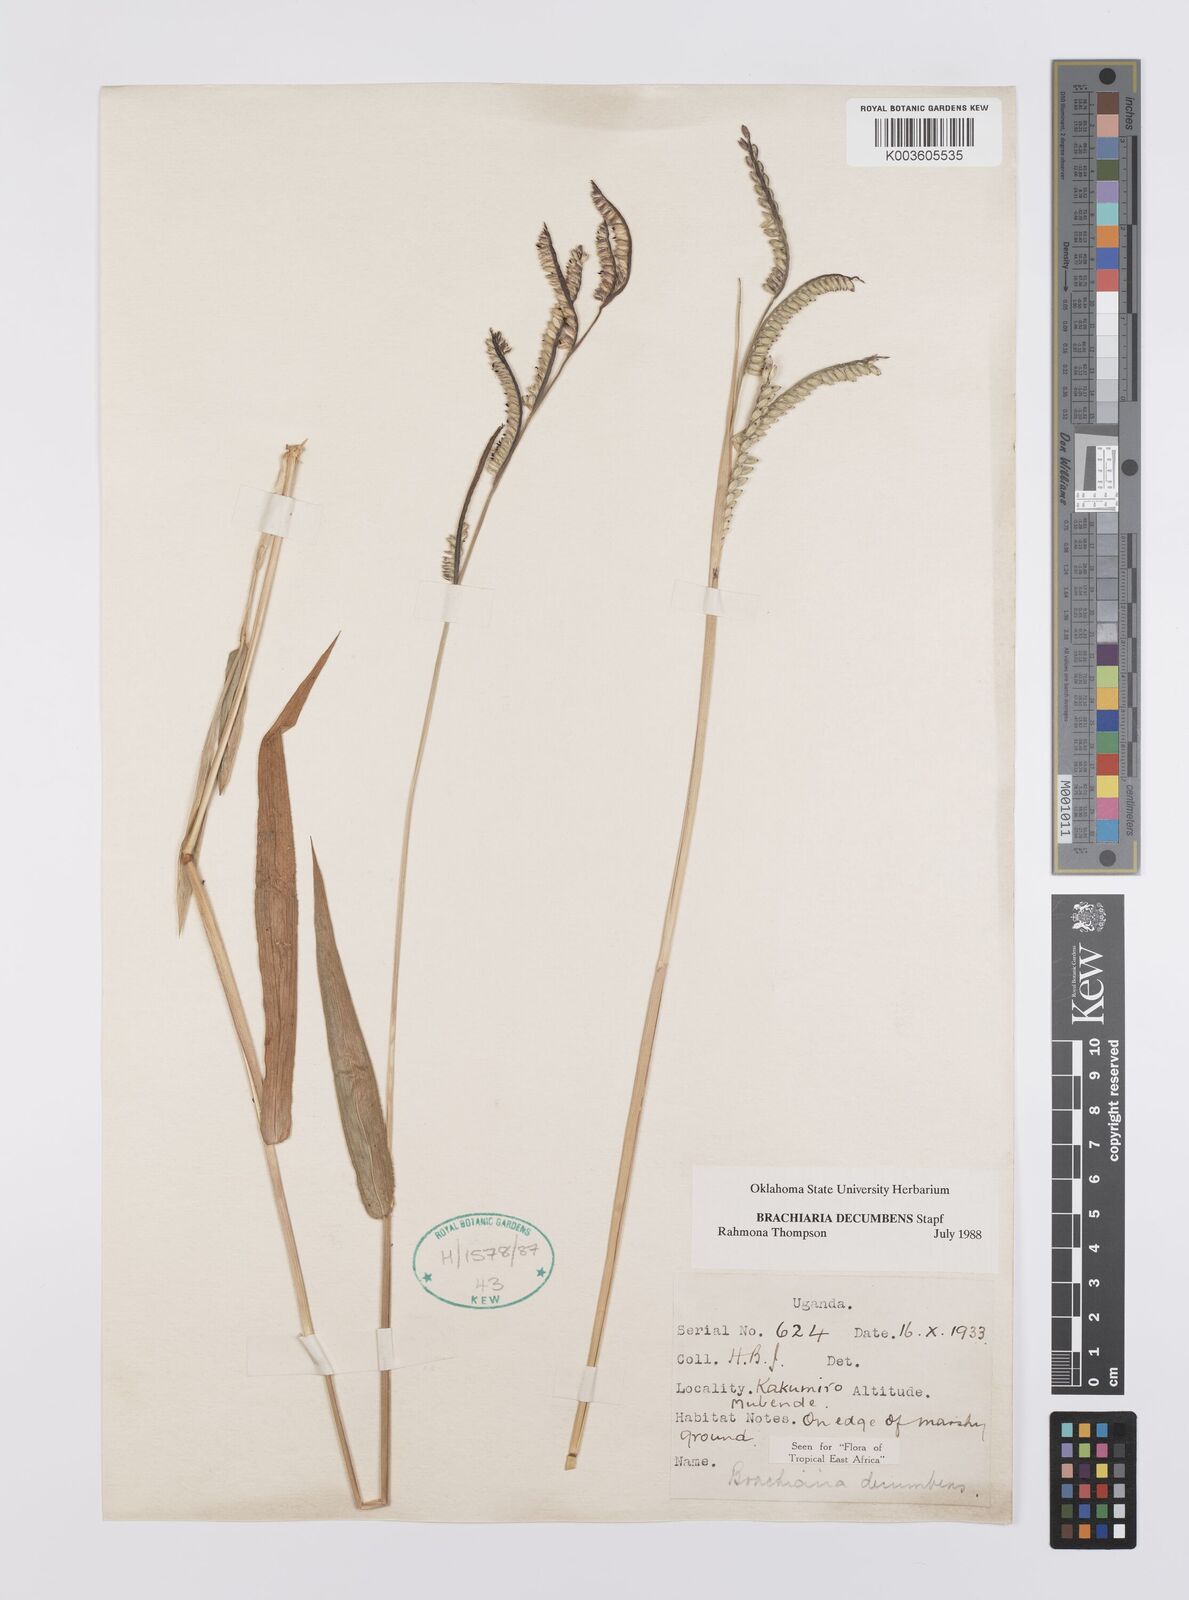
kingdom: Plantae
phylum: Tracheophyta
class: Liliopsida
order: Poales
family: Poaceae
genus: Urochloa
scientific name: Urochloa eminii
